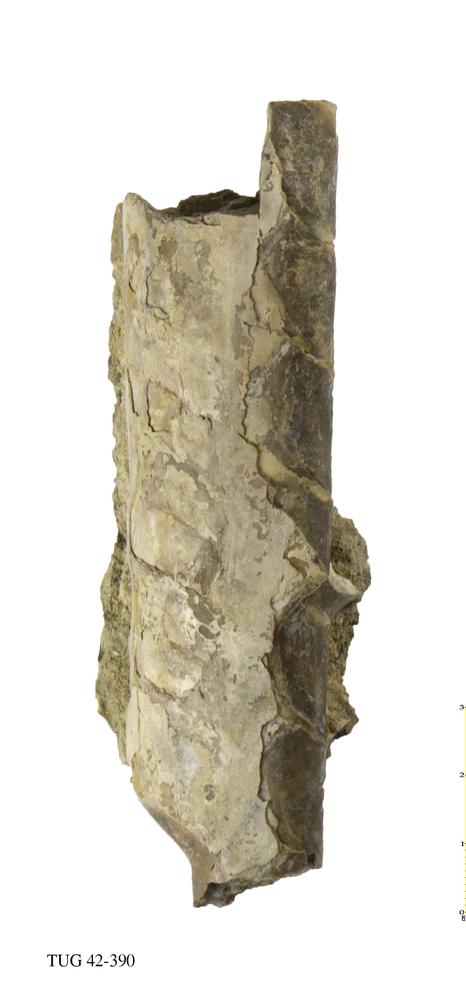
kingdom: Animalia
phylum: Mollusca
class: Cephalopoda
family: Endoceratidae
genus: Proterovaginoceras
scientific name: Proterovaginoceras Endoceras incognitum
